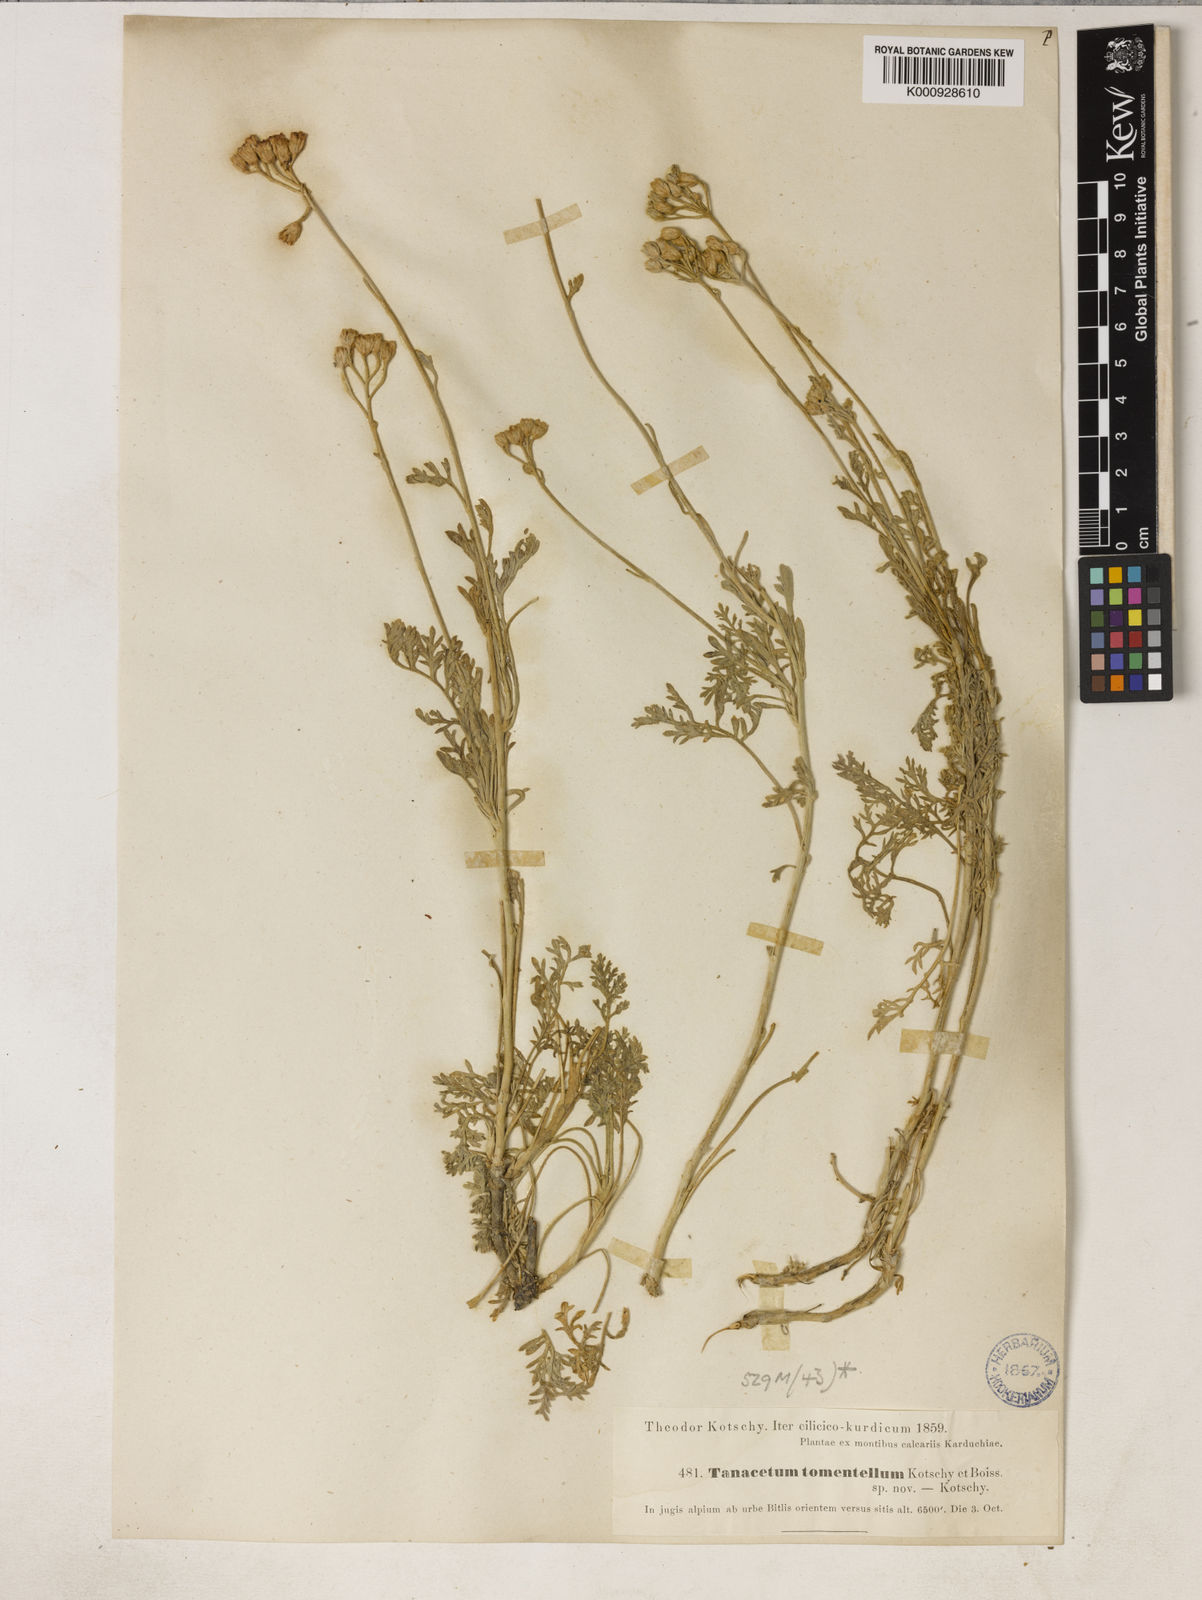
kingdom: Plantae
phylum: Tracheophyta
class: Magnoliopsida
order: Asterales
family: Asteraceae
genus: Tanacetum
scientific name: Tanacetum tomentellum
